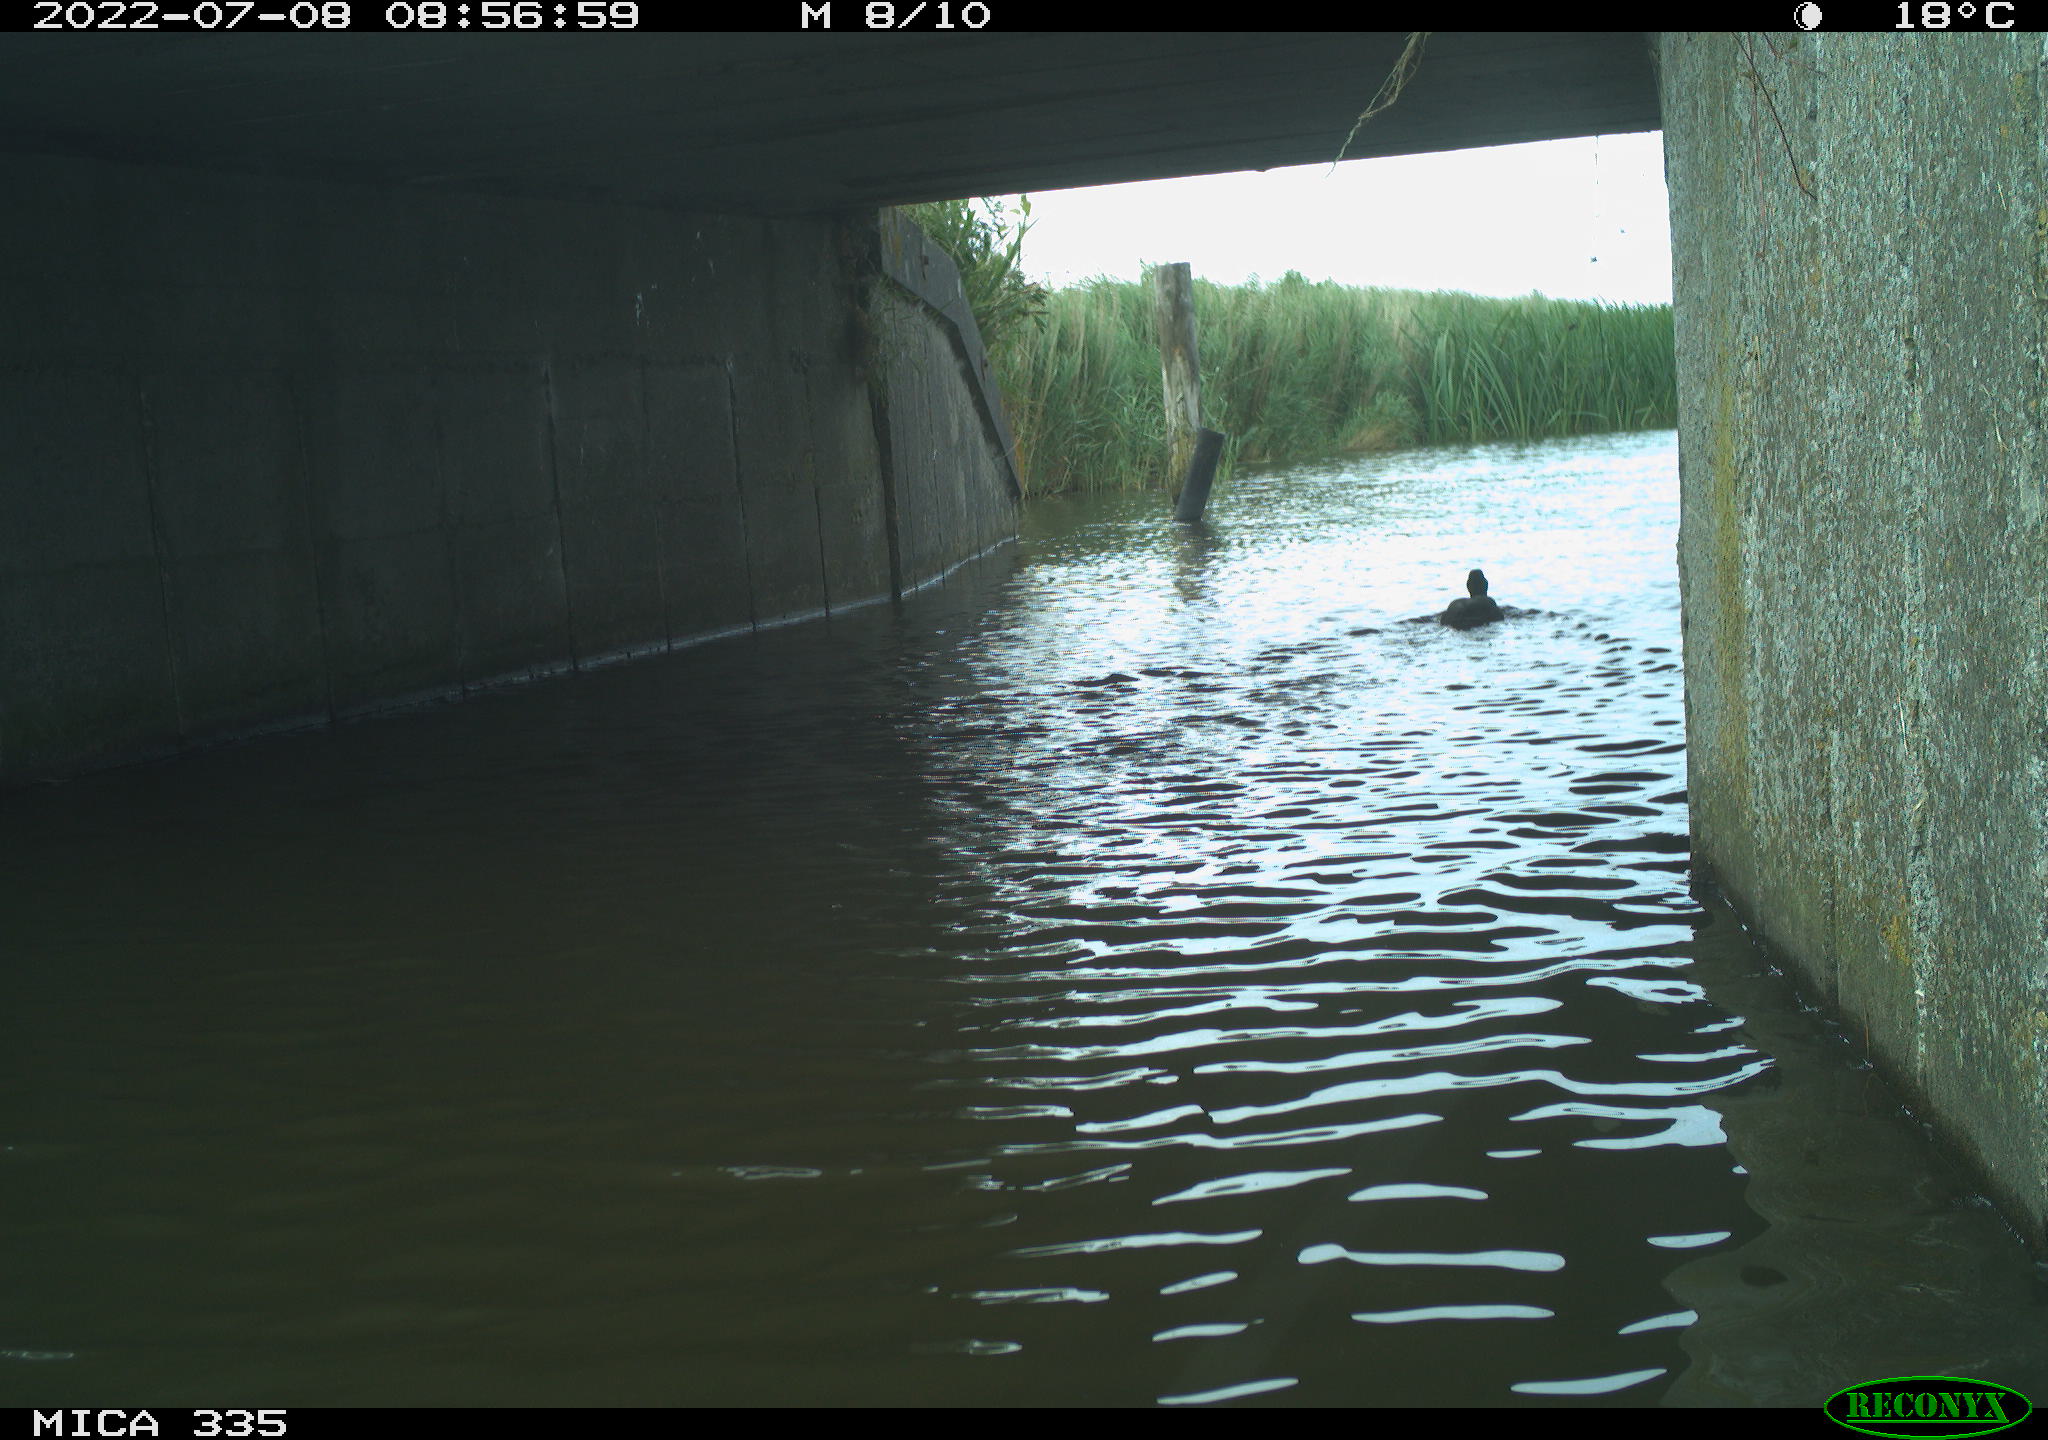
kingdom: Animalia
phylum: Chordata
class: Aves
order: Anseriformes
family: Anatidae
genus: Anas
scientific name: Anas platyrhynchos
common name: Mallard
